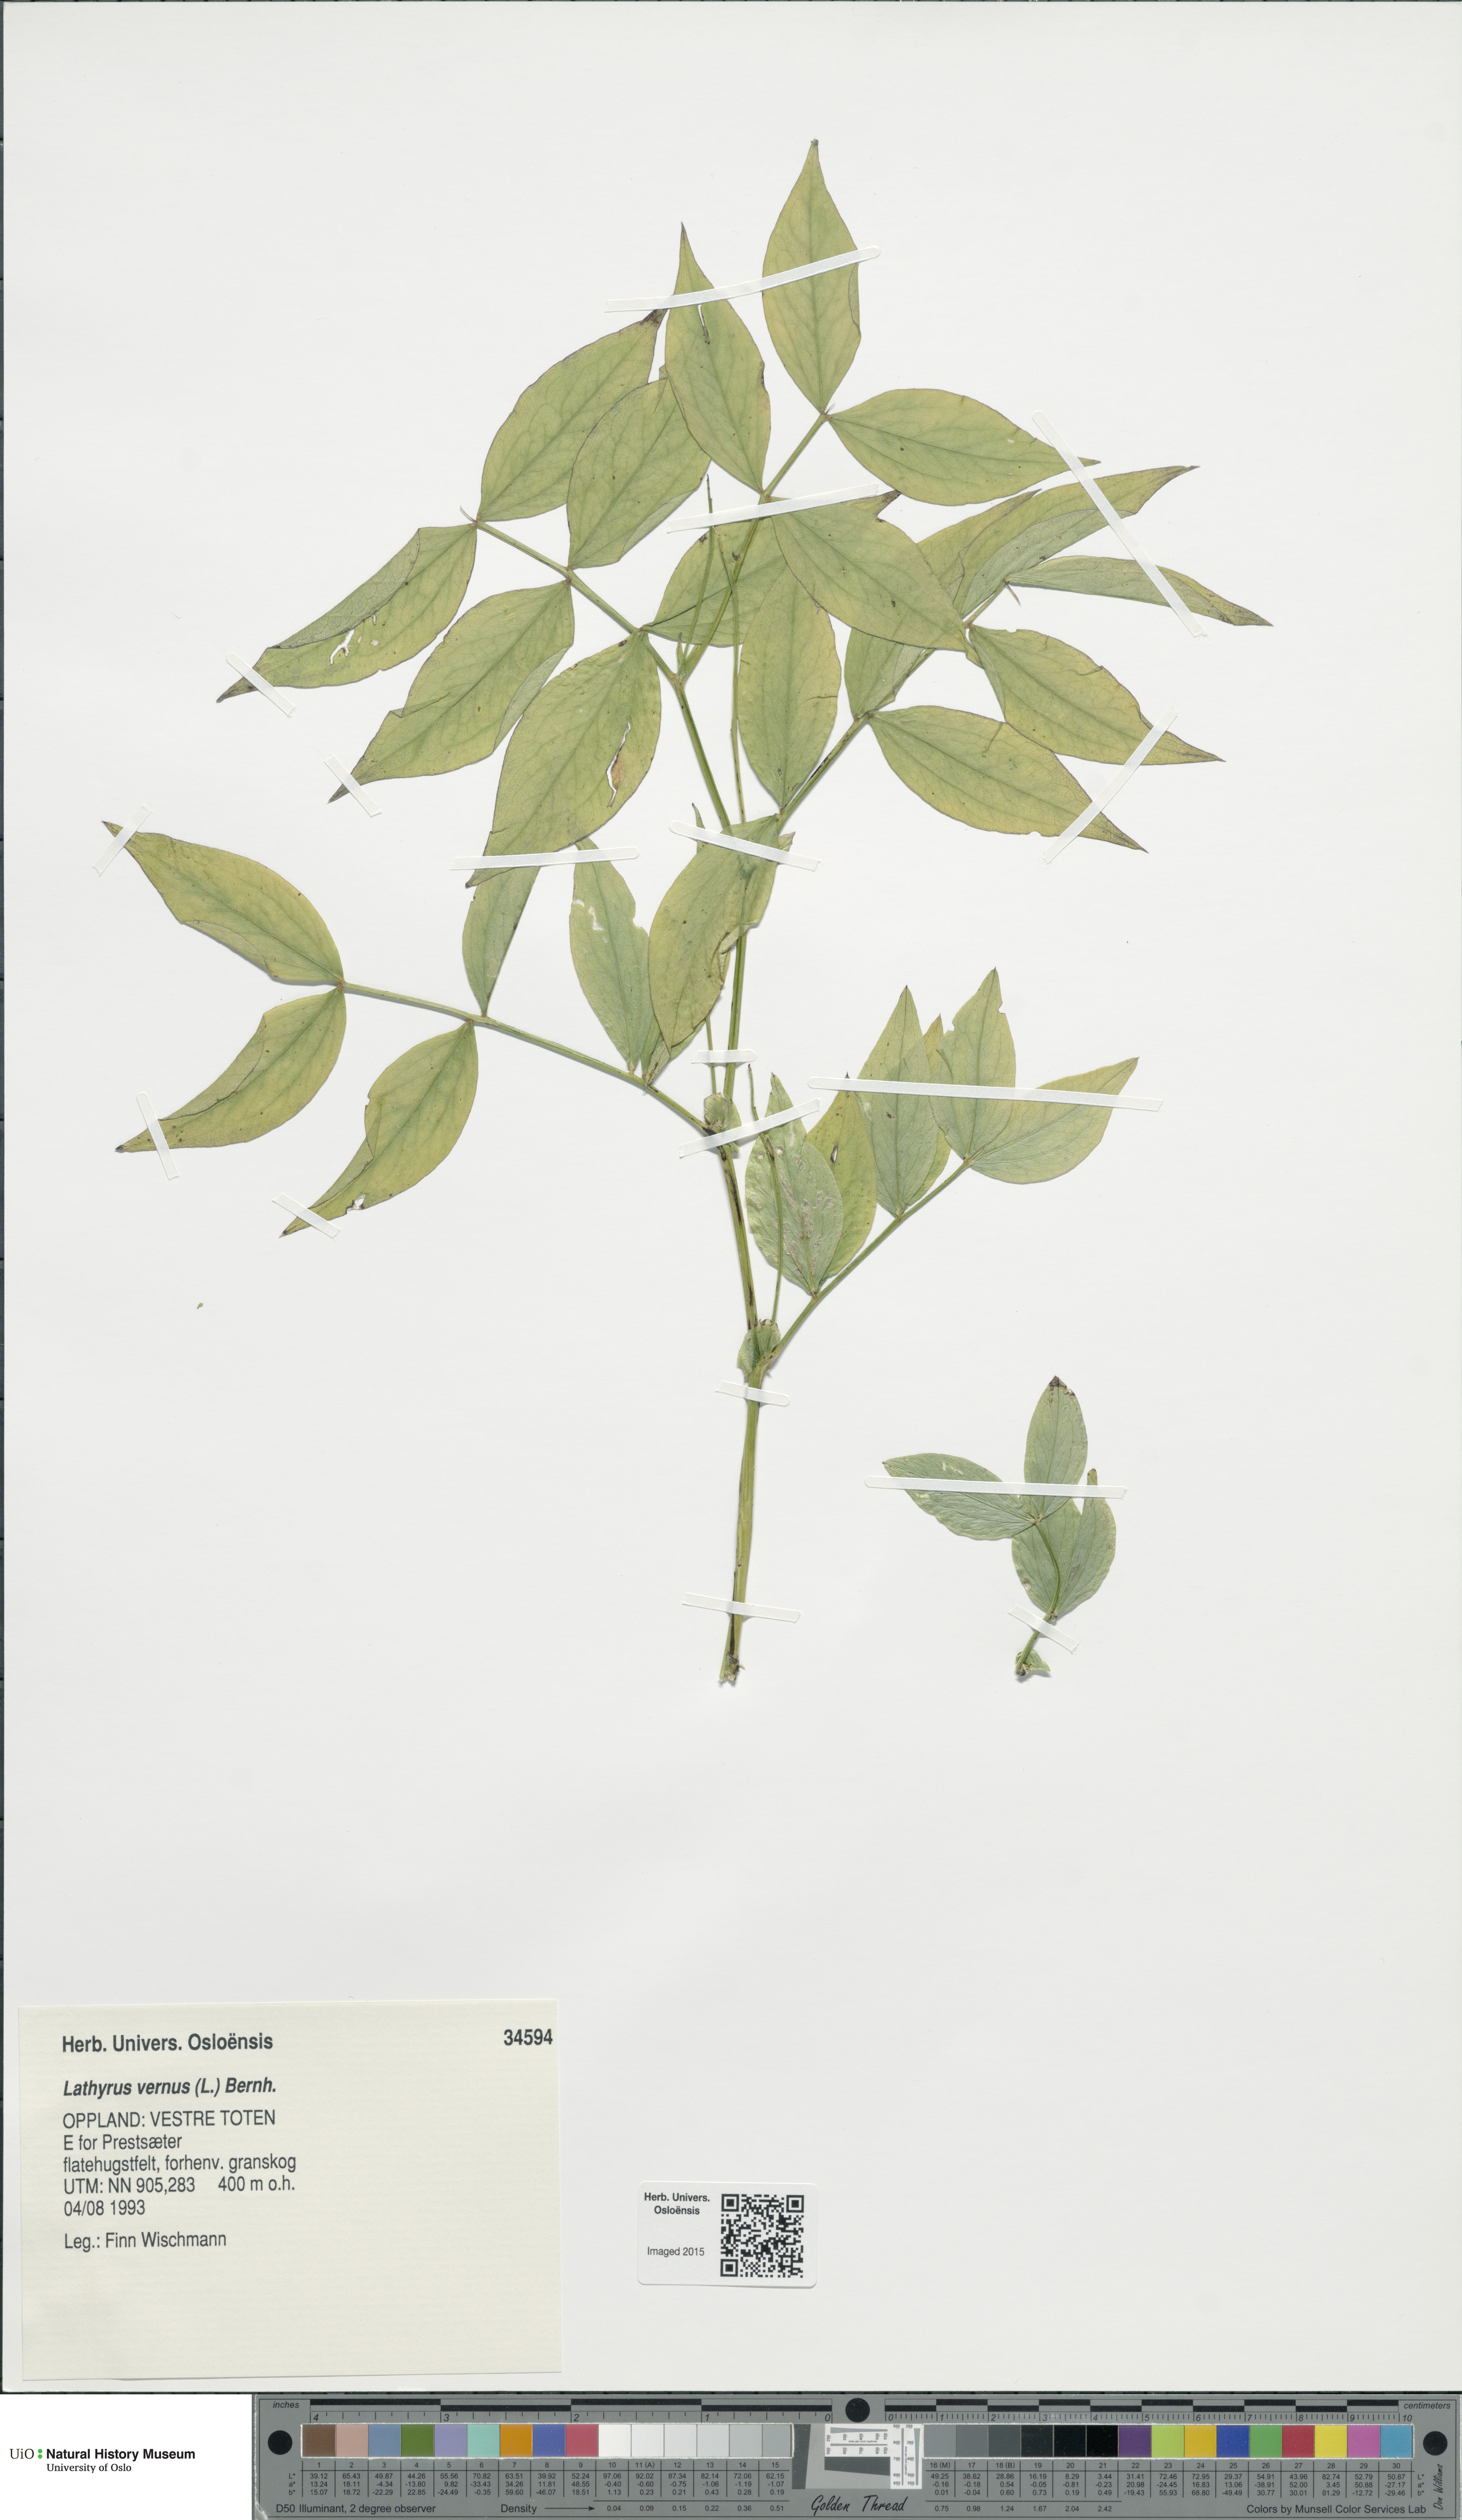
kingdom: Plantae
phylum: Tracheophyta
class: Magnoliopsida
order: Fabales
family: Fabaceae
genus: Lathyrus
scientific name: Lathyrus vernus
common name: Spring pea
